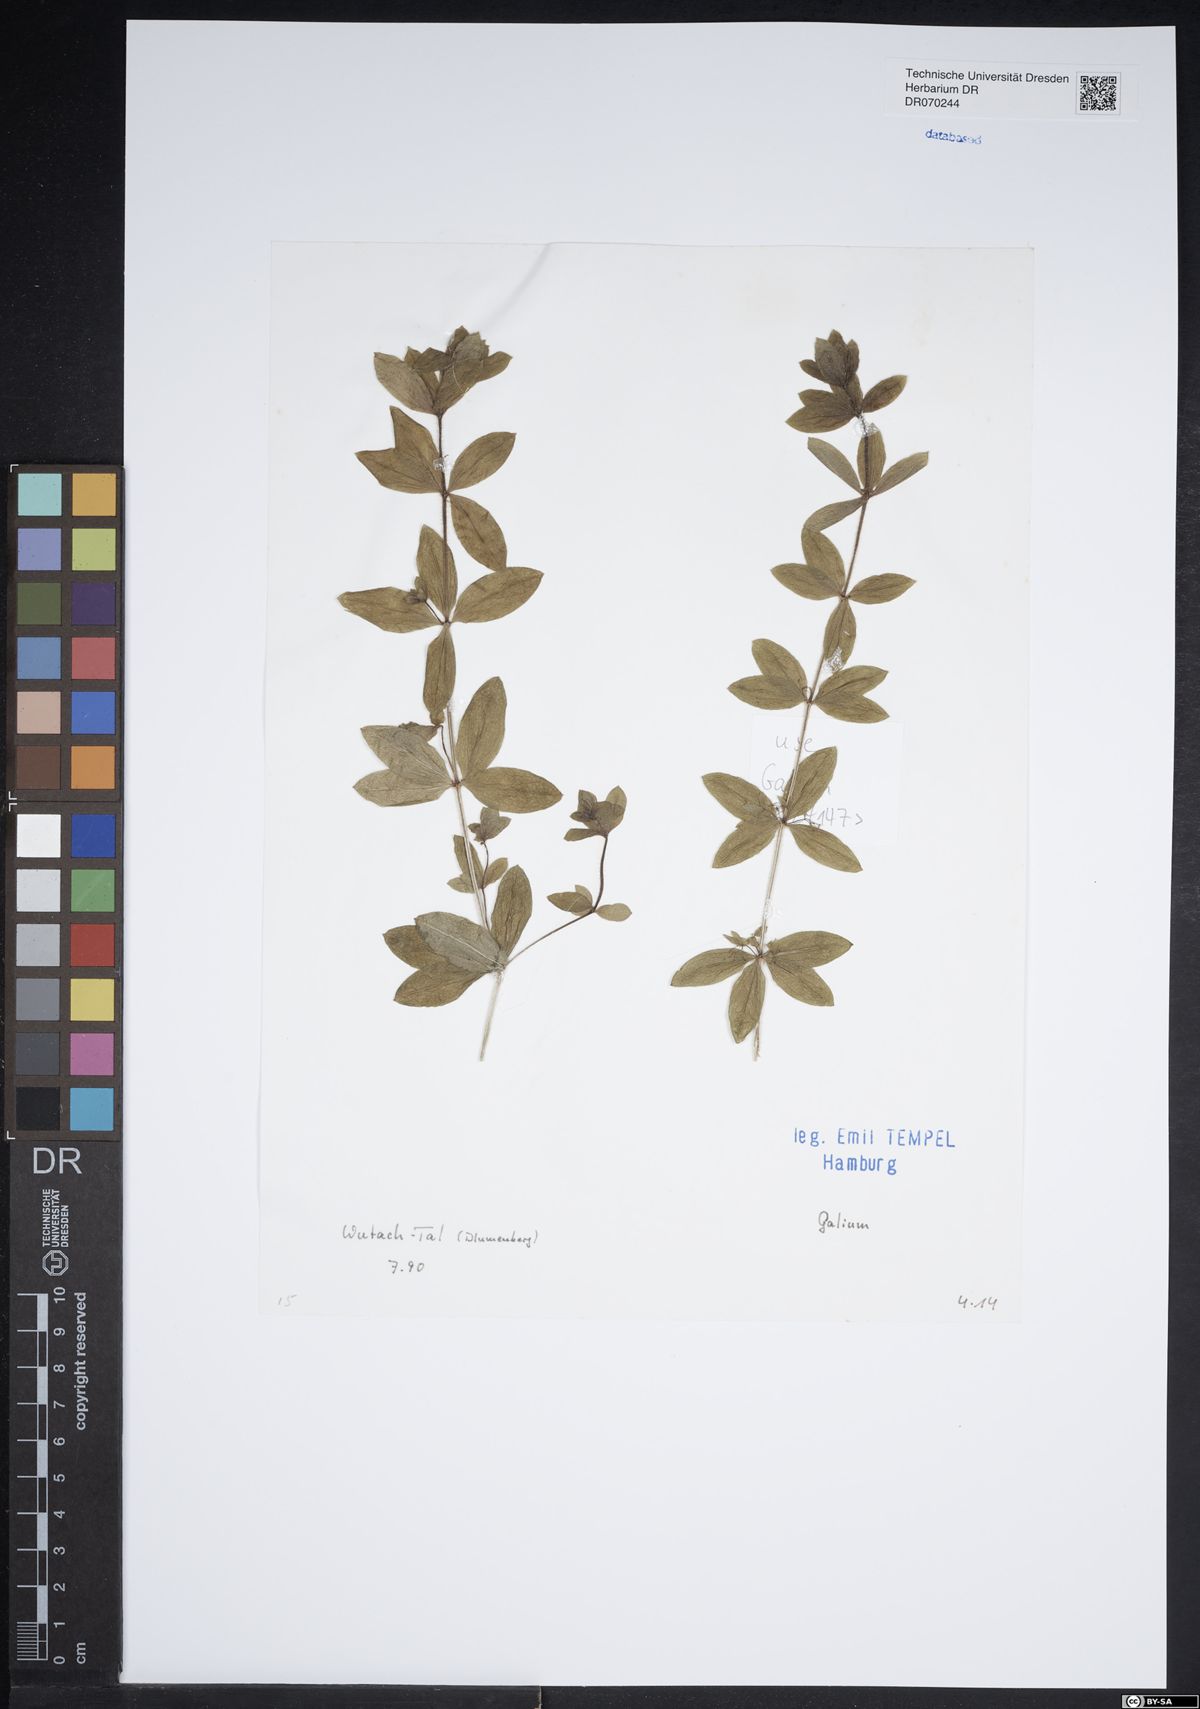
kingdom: Plantae
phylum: Tracheophyta
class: Magnoliopsida
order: Gentianales
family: Rubiaceae
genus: Galium
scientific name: Galium
